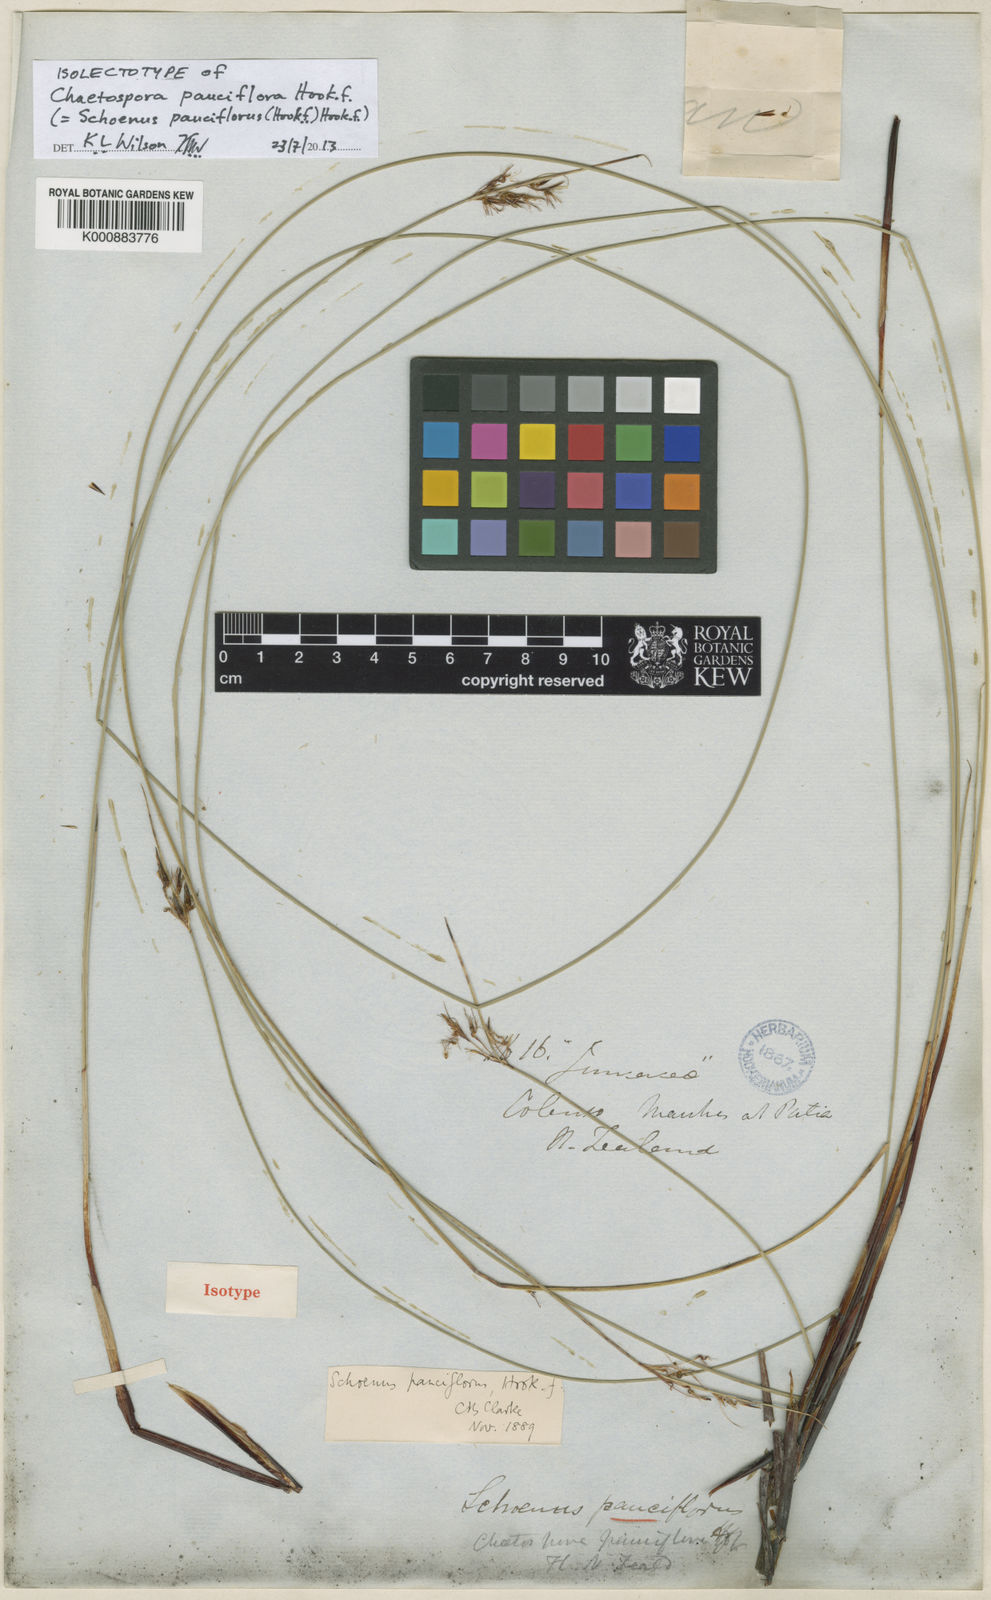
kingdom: Plantae
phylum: Tracheophyta
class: Liliopsida
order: Poales
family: Cyperaceae
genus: Schoenus
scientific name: Schoenus pauciflorus
